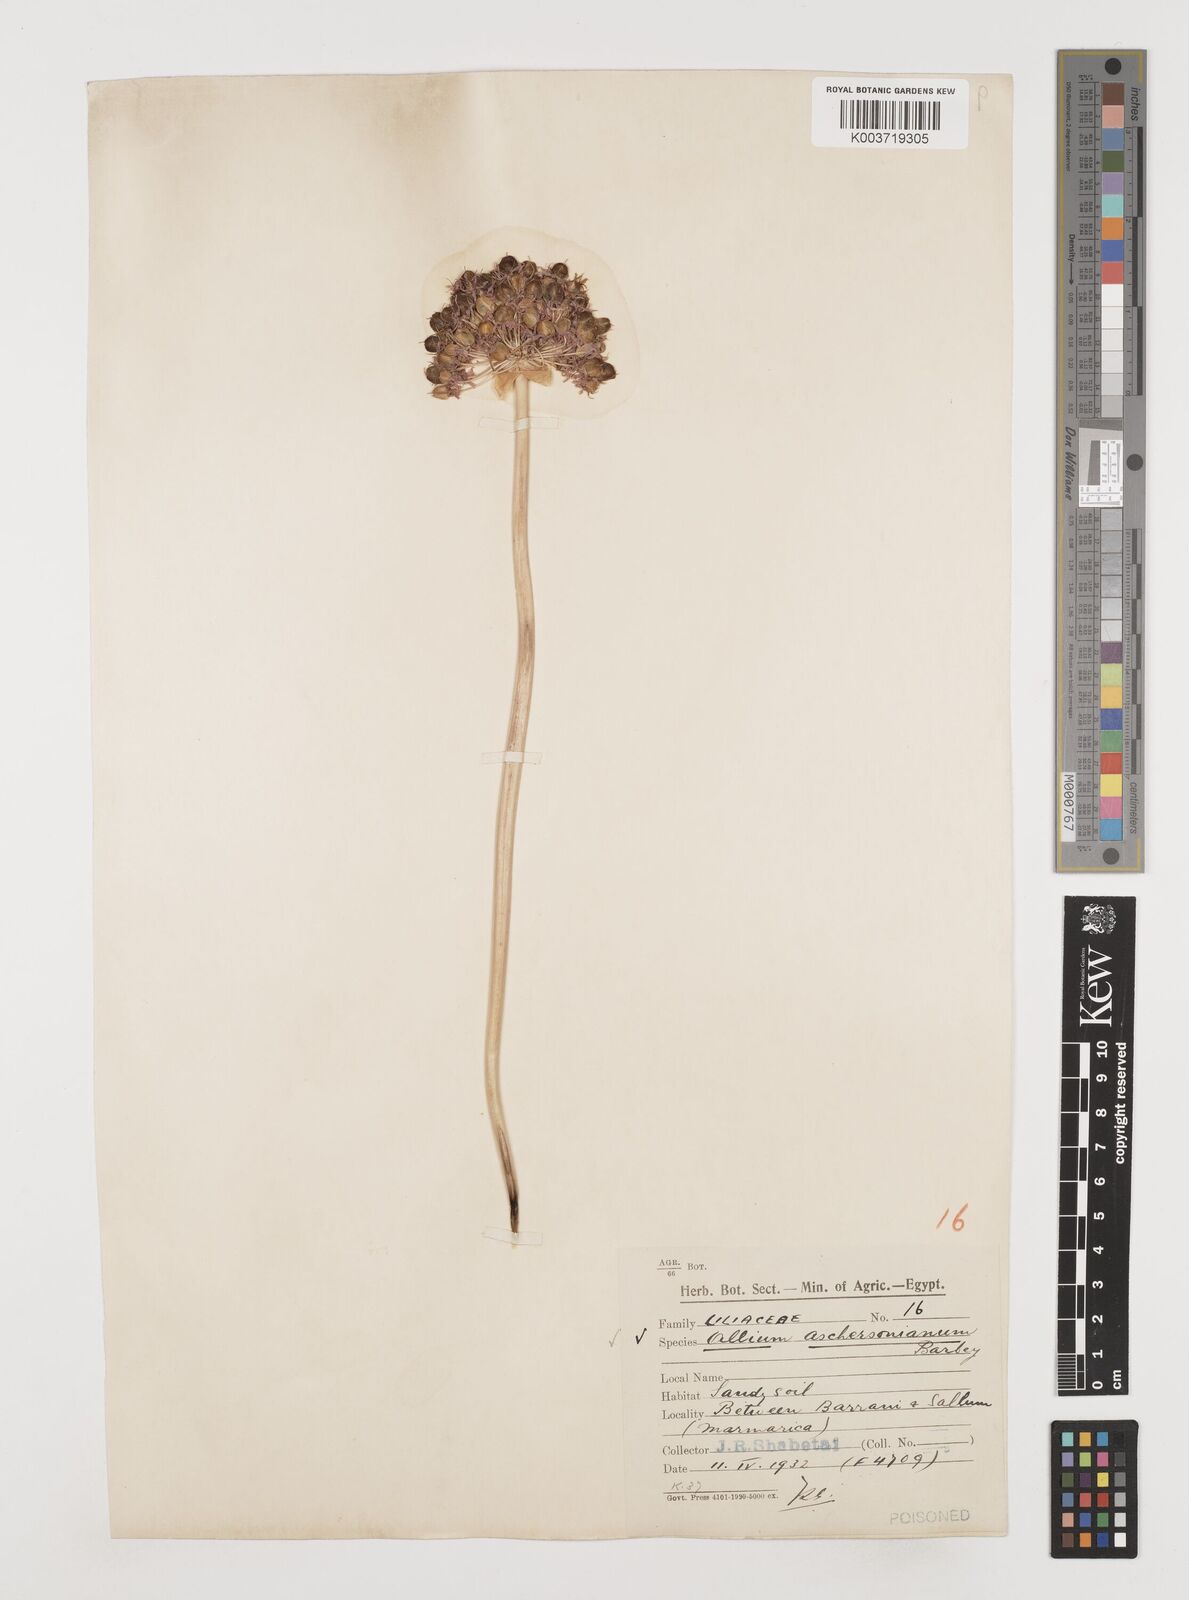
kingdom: Plantae
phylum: Tracheophyta
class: Liliopsida
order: Asparagales
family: Amaryllidaceae
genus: Allium
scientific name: Allium orientale
